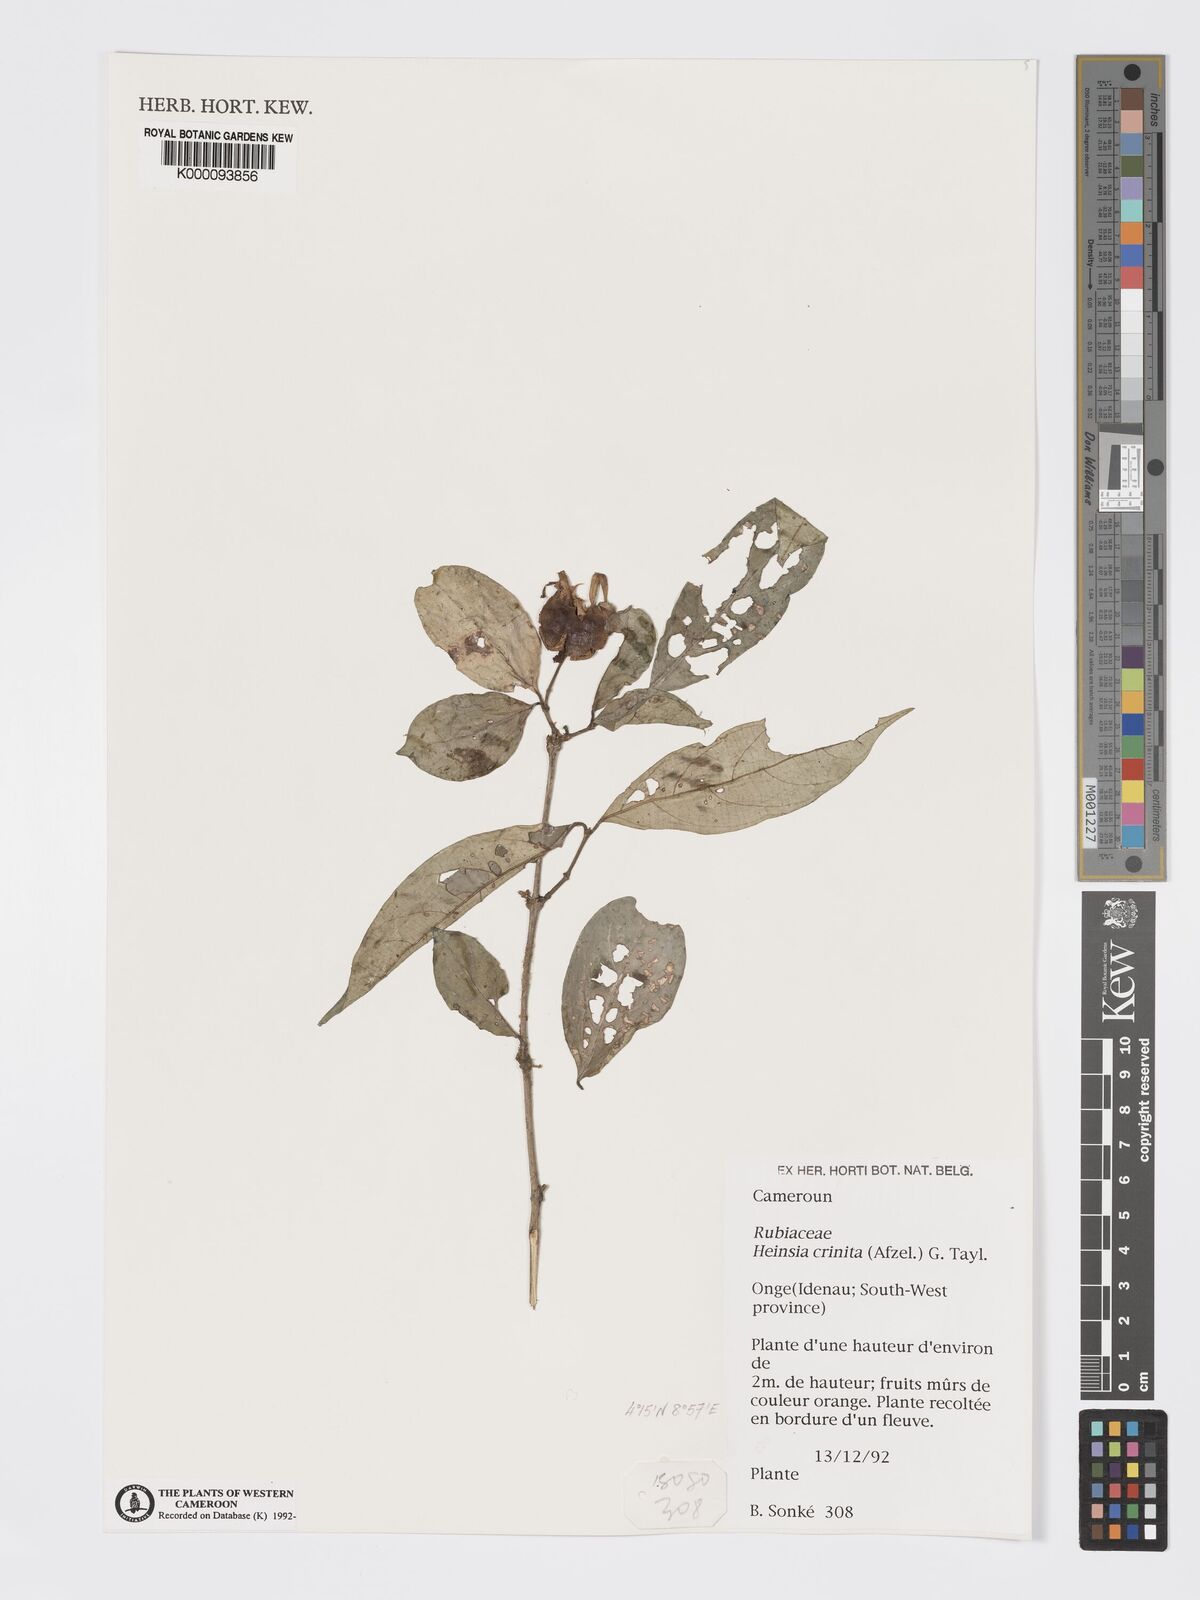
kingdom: Plantae
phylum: Tracheophyta
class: Magnoliopsida
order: Gentianales
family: Rubiaceae
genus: Heinsia
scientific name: Heinsia crinita
